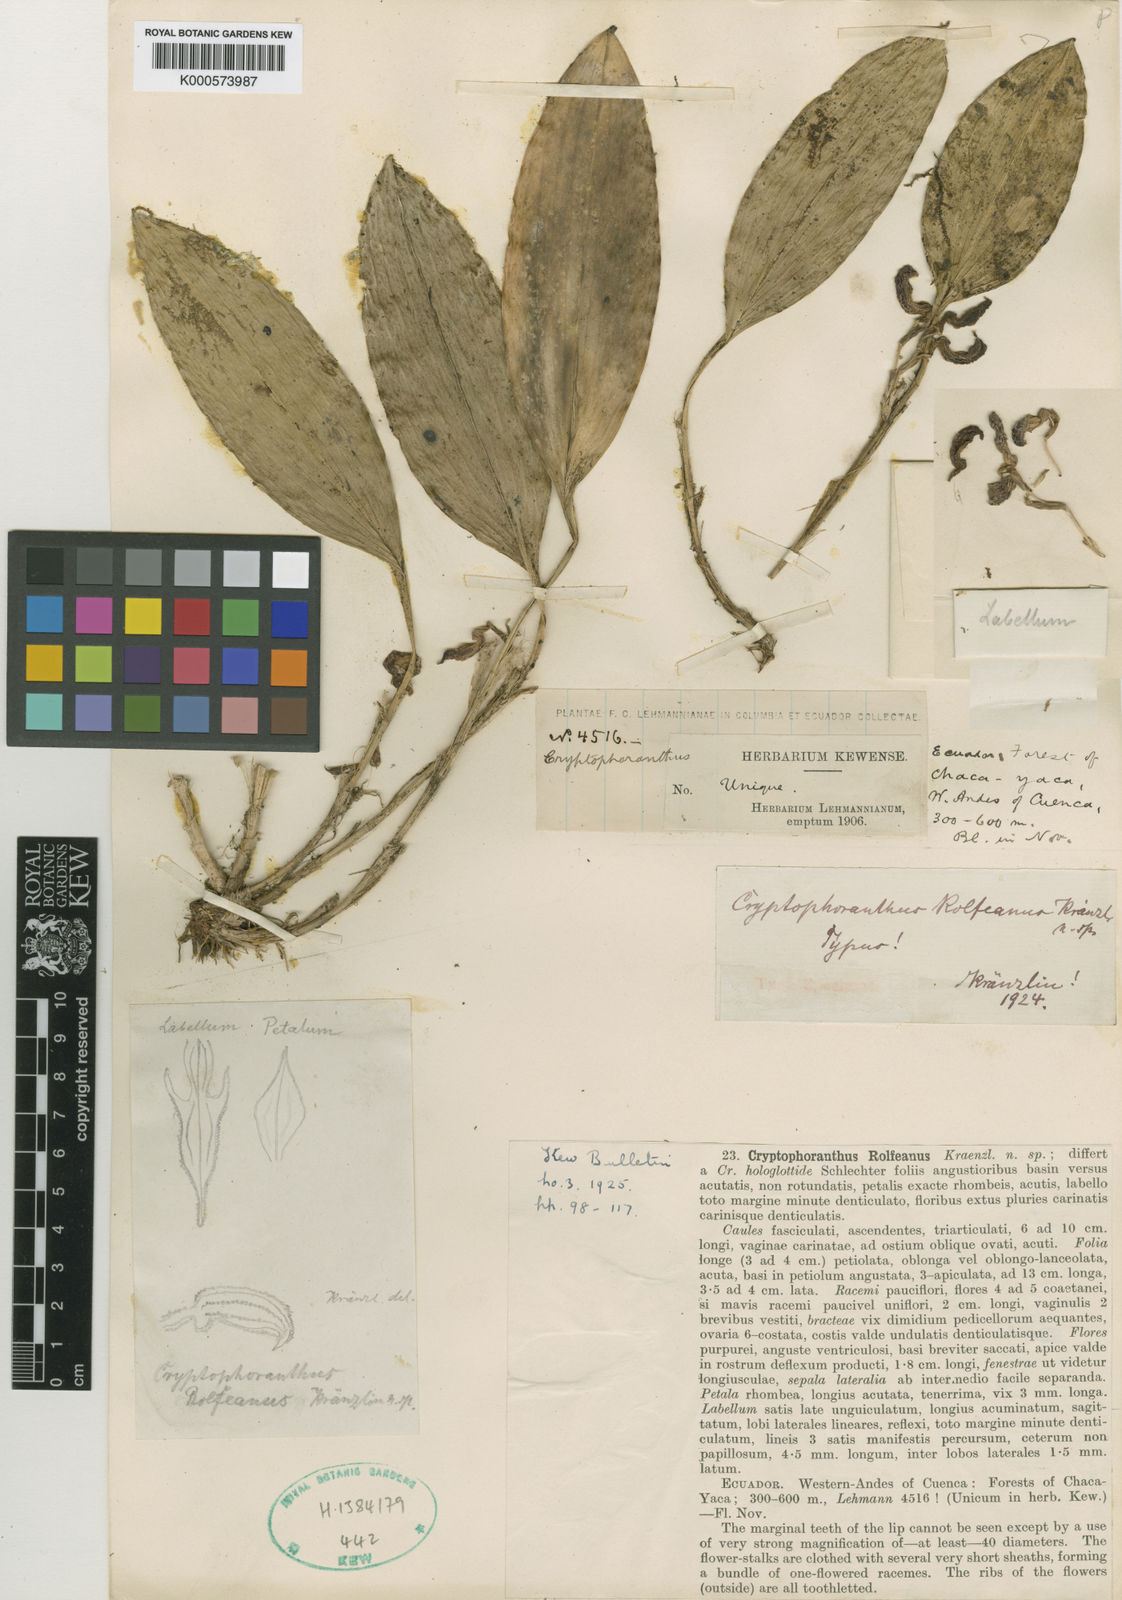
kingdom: Plantae
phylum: Tracheophyta
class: Liliopsida
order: Asparagales
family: Orchidaceae
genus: Zootrophion
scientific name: Zootrophion hypodiscus
